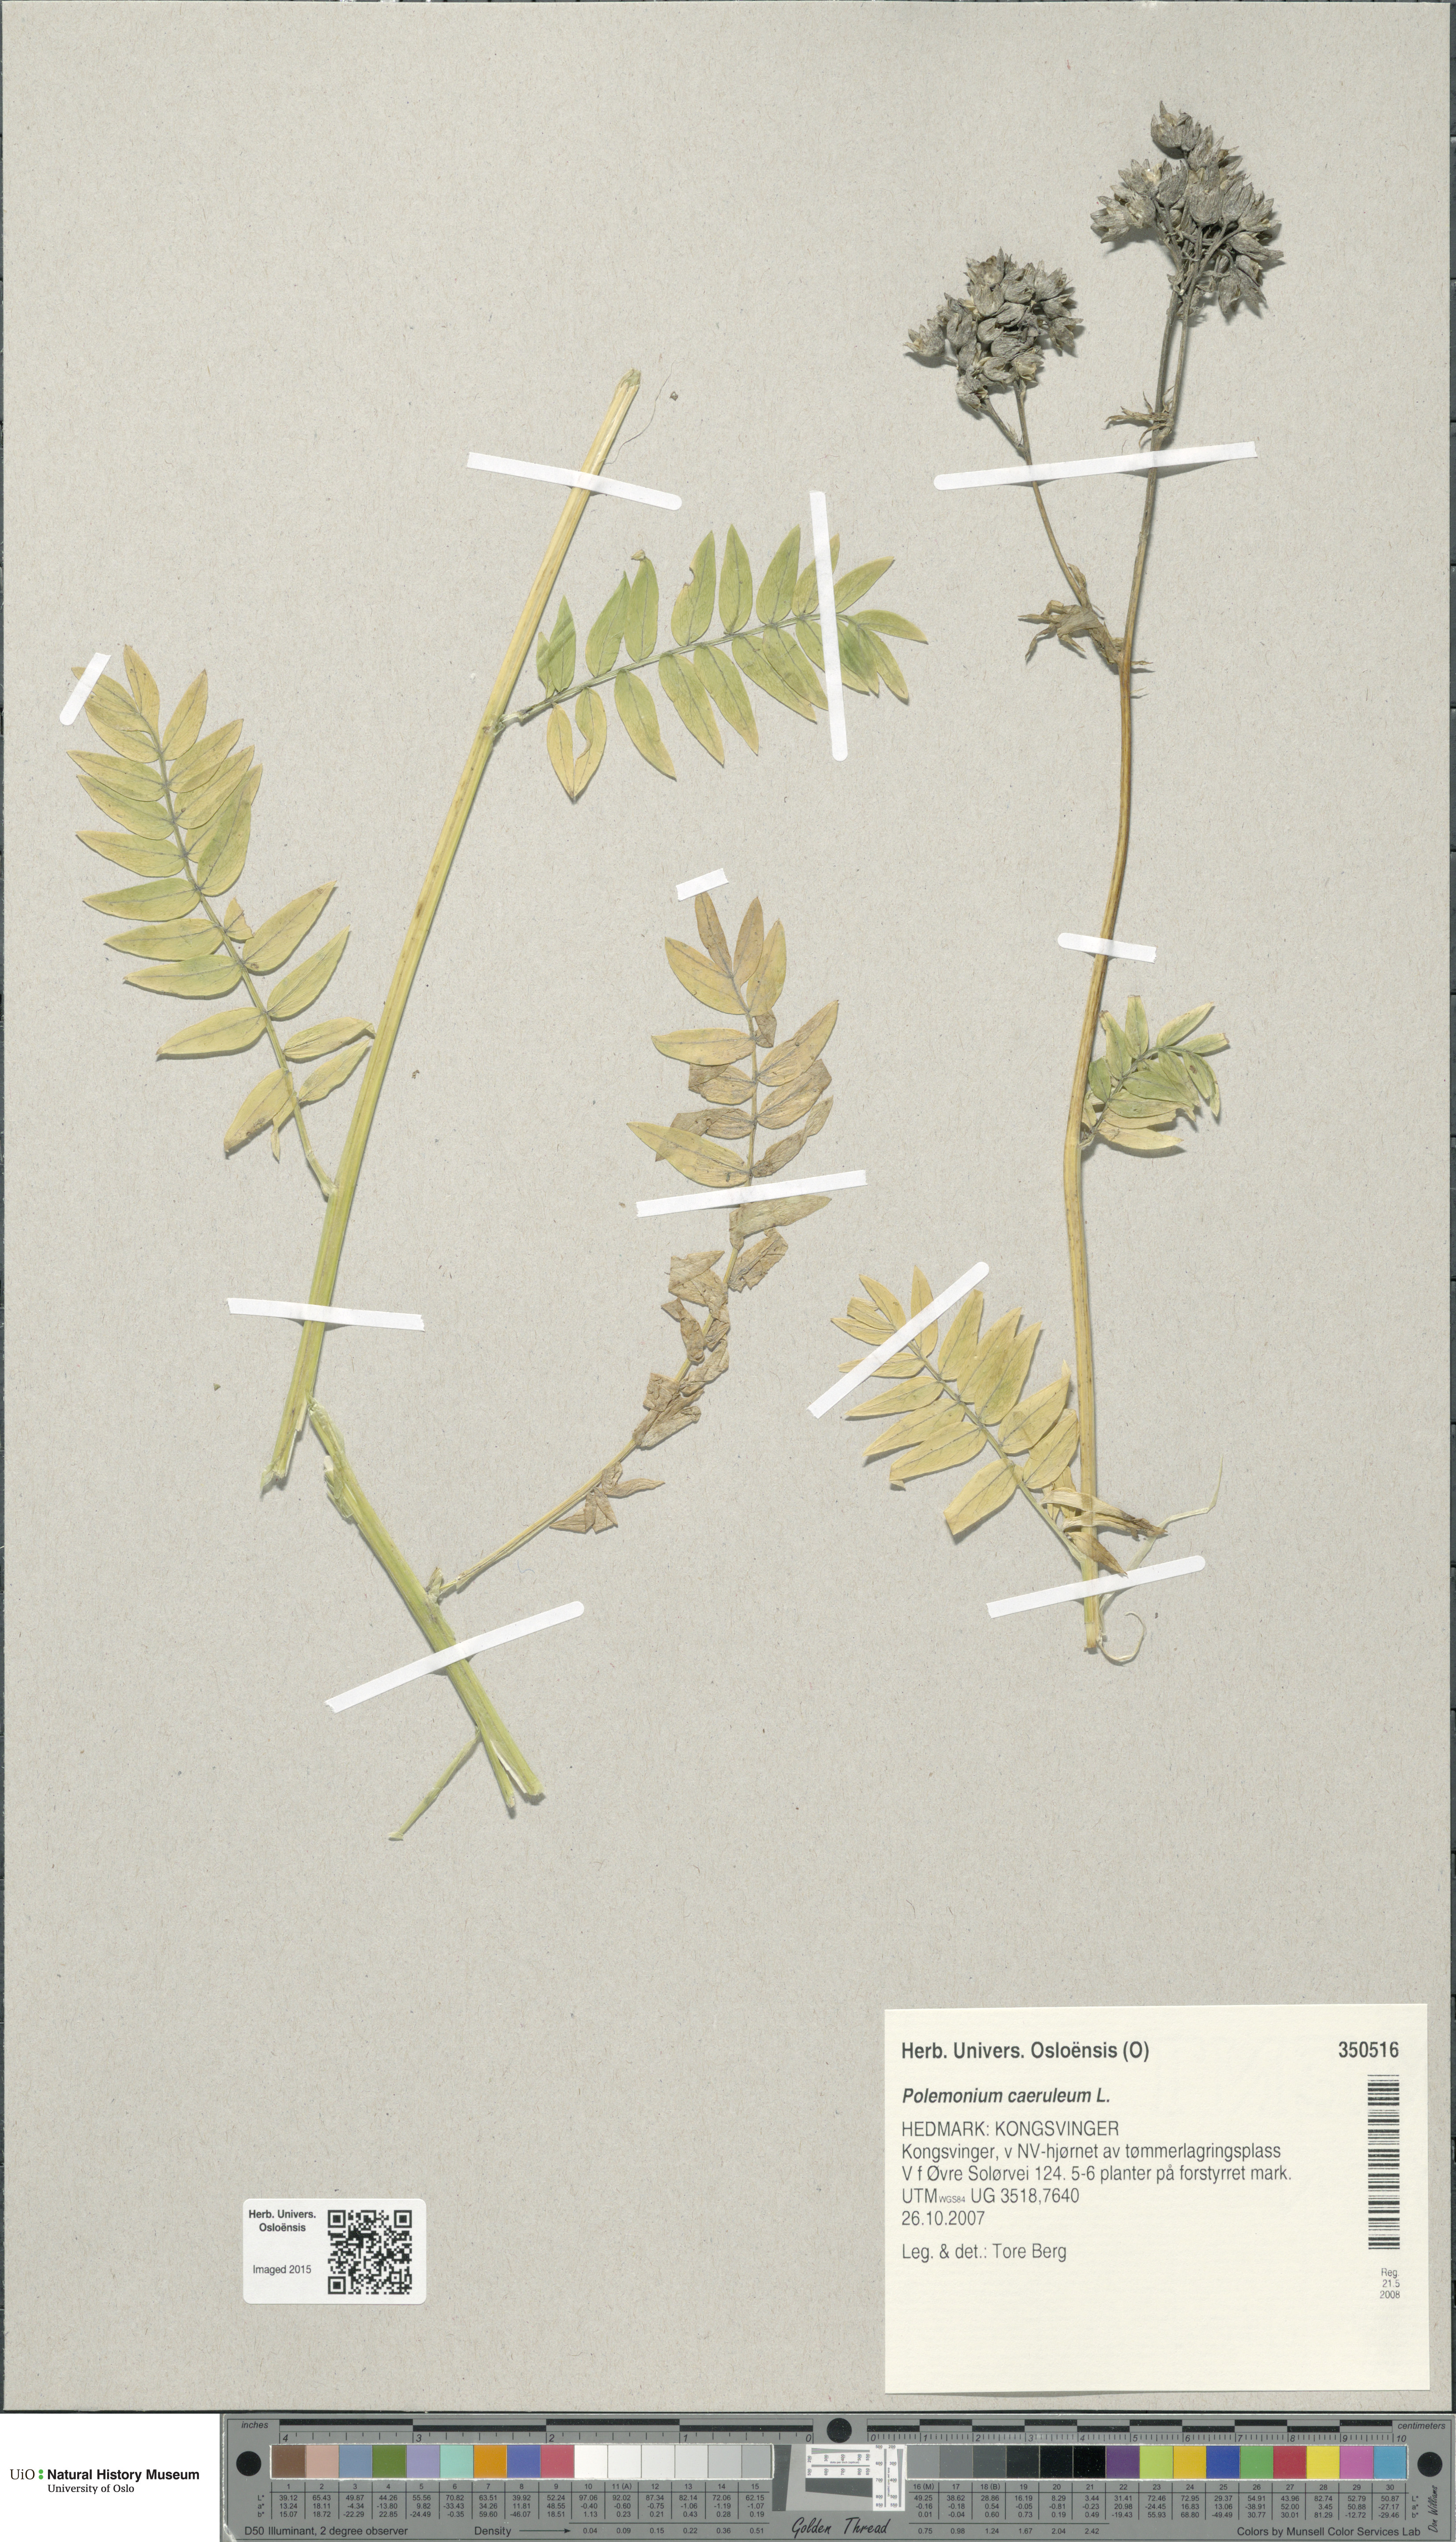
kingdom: Plantae
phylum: Tracheophyta
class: Magnoliopsida
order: Ericales
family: Polemoniaceae
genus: Polemonium
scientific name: Polemonium caeruleum
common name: Jacob's-ladder
